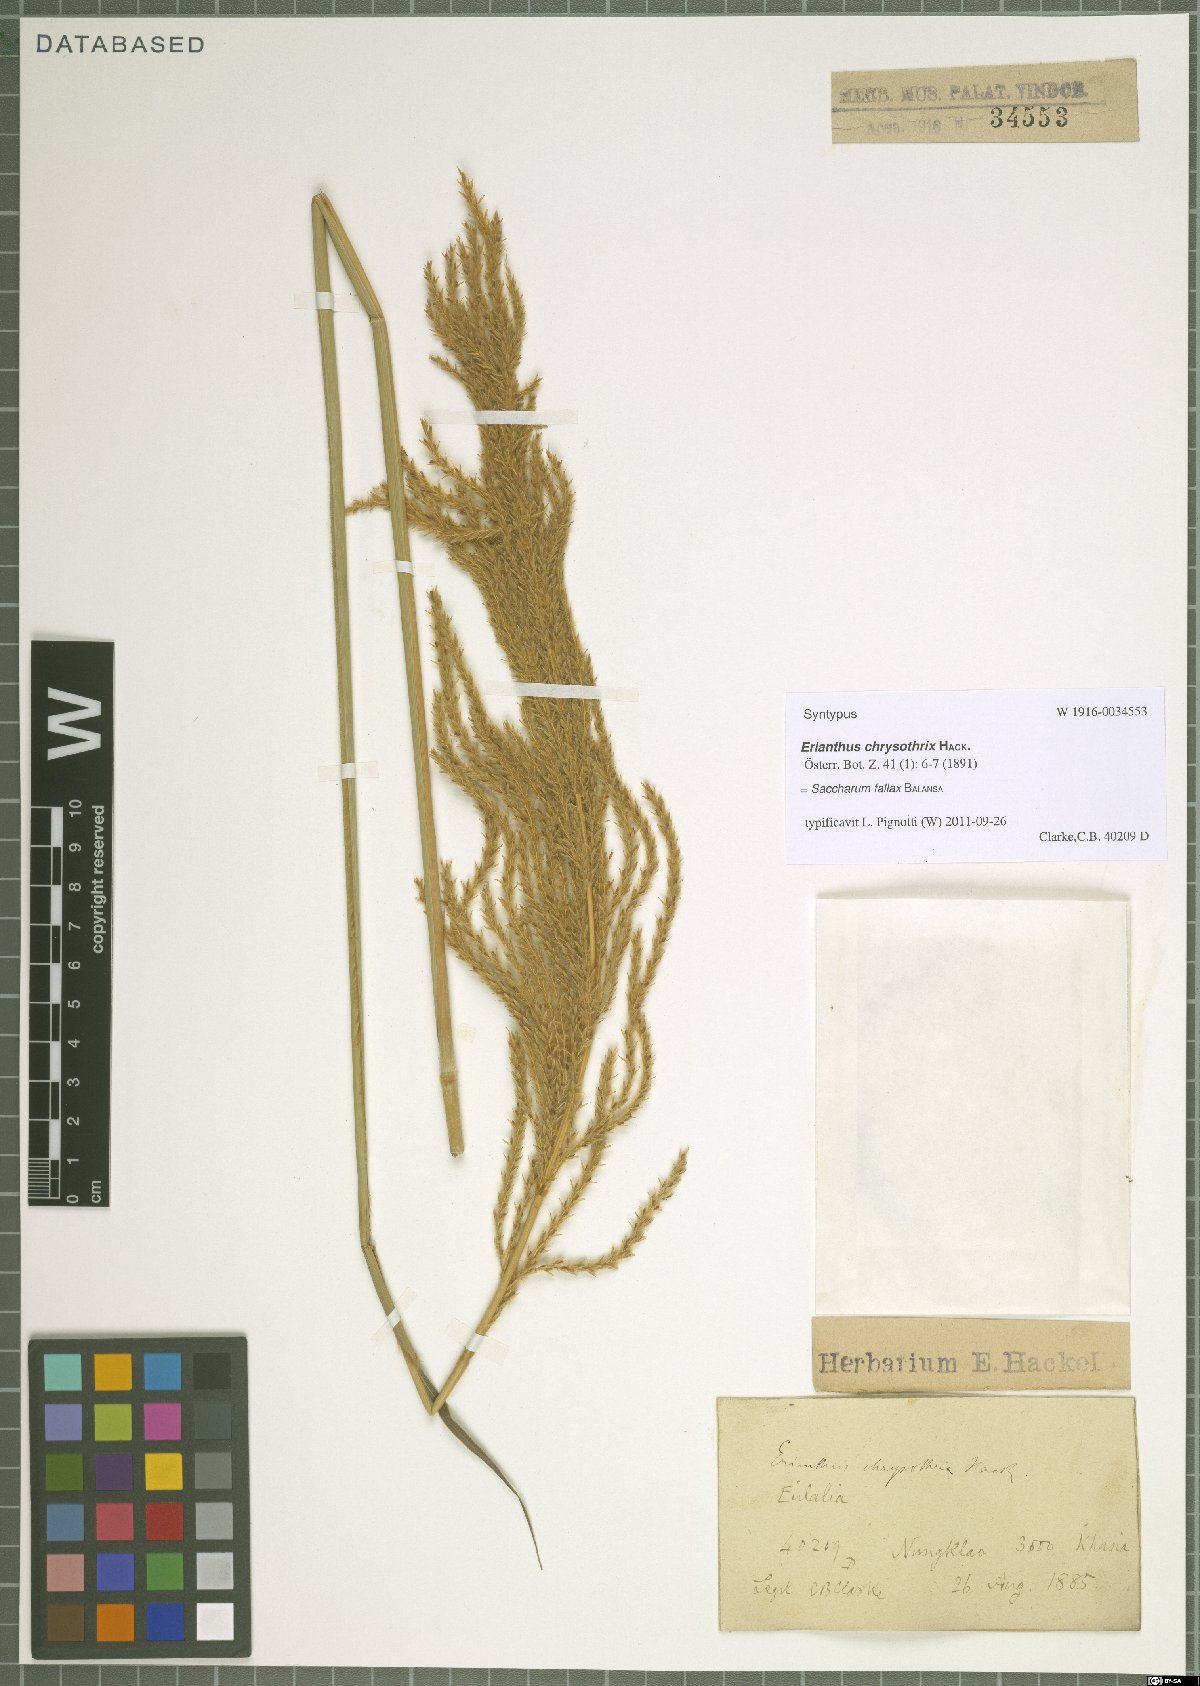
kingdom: Plantae
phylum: Tracheophyta
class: Liliopsida
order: Poales
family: Poaceae
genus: Narenga
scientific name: Narenga fallax
